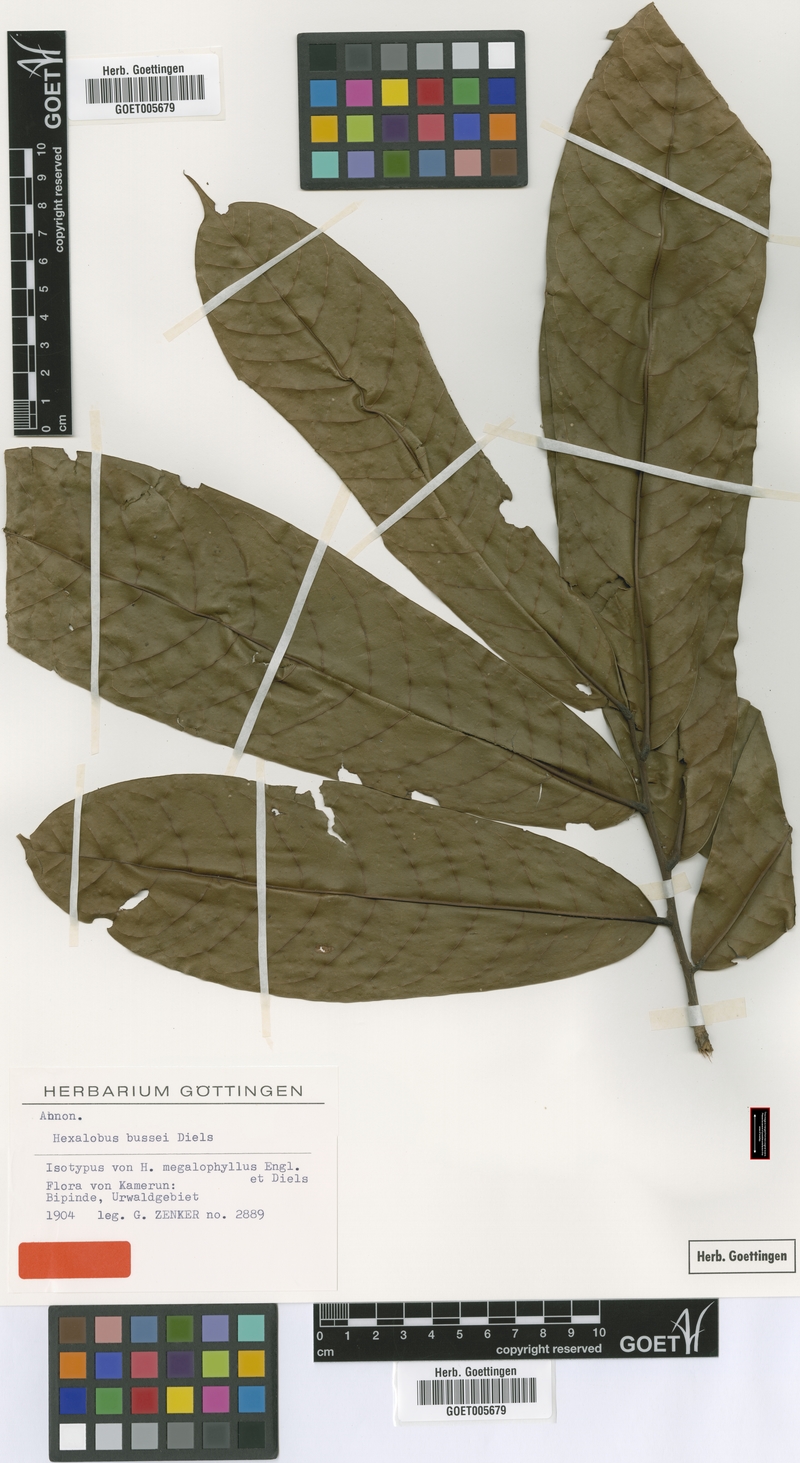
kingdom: Plantae
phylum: Tracheophyta
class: Magnoliopsida
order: Magnoliales
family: Annonaceae
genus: Hexalobus
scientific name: Hexalobus bussei
